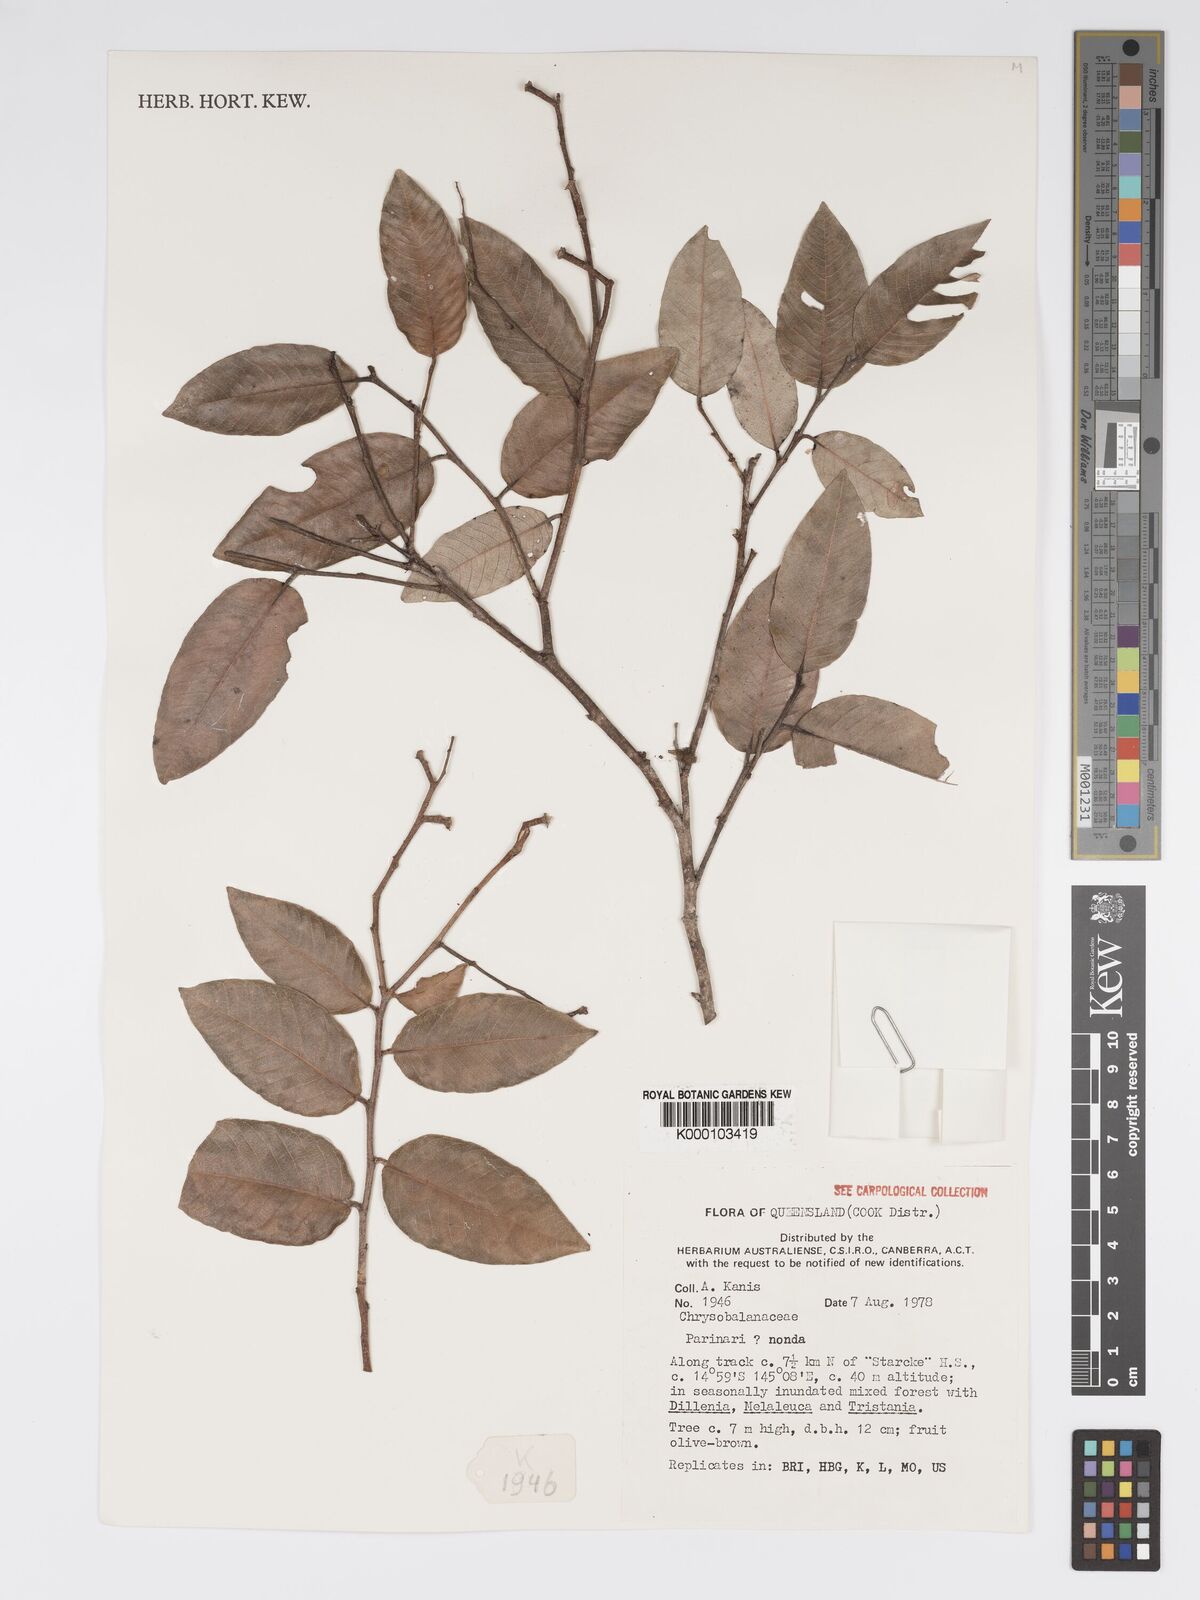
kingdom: Plantae
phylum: Tracheophyta
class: Magnoliopsida
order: Malpighiales
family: Chrysobalanaceae
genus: Parinari
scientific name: Parinari nonda
